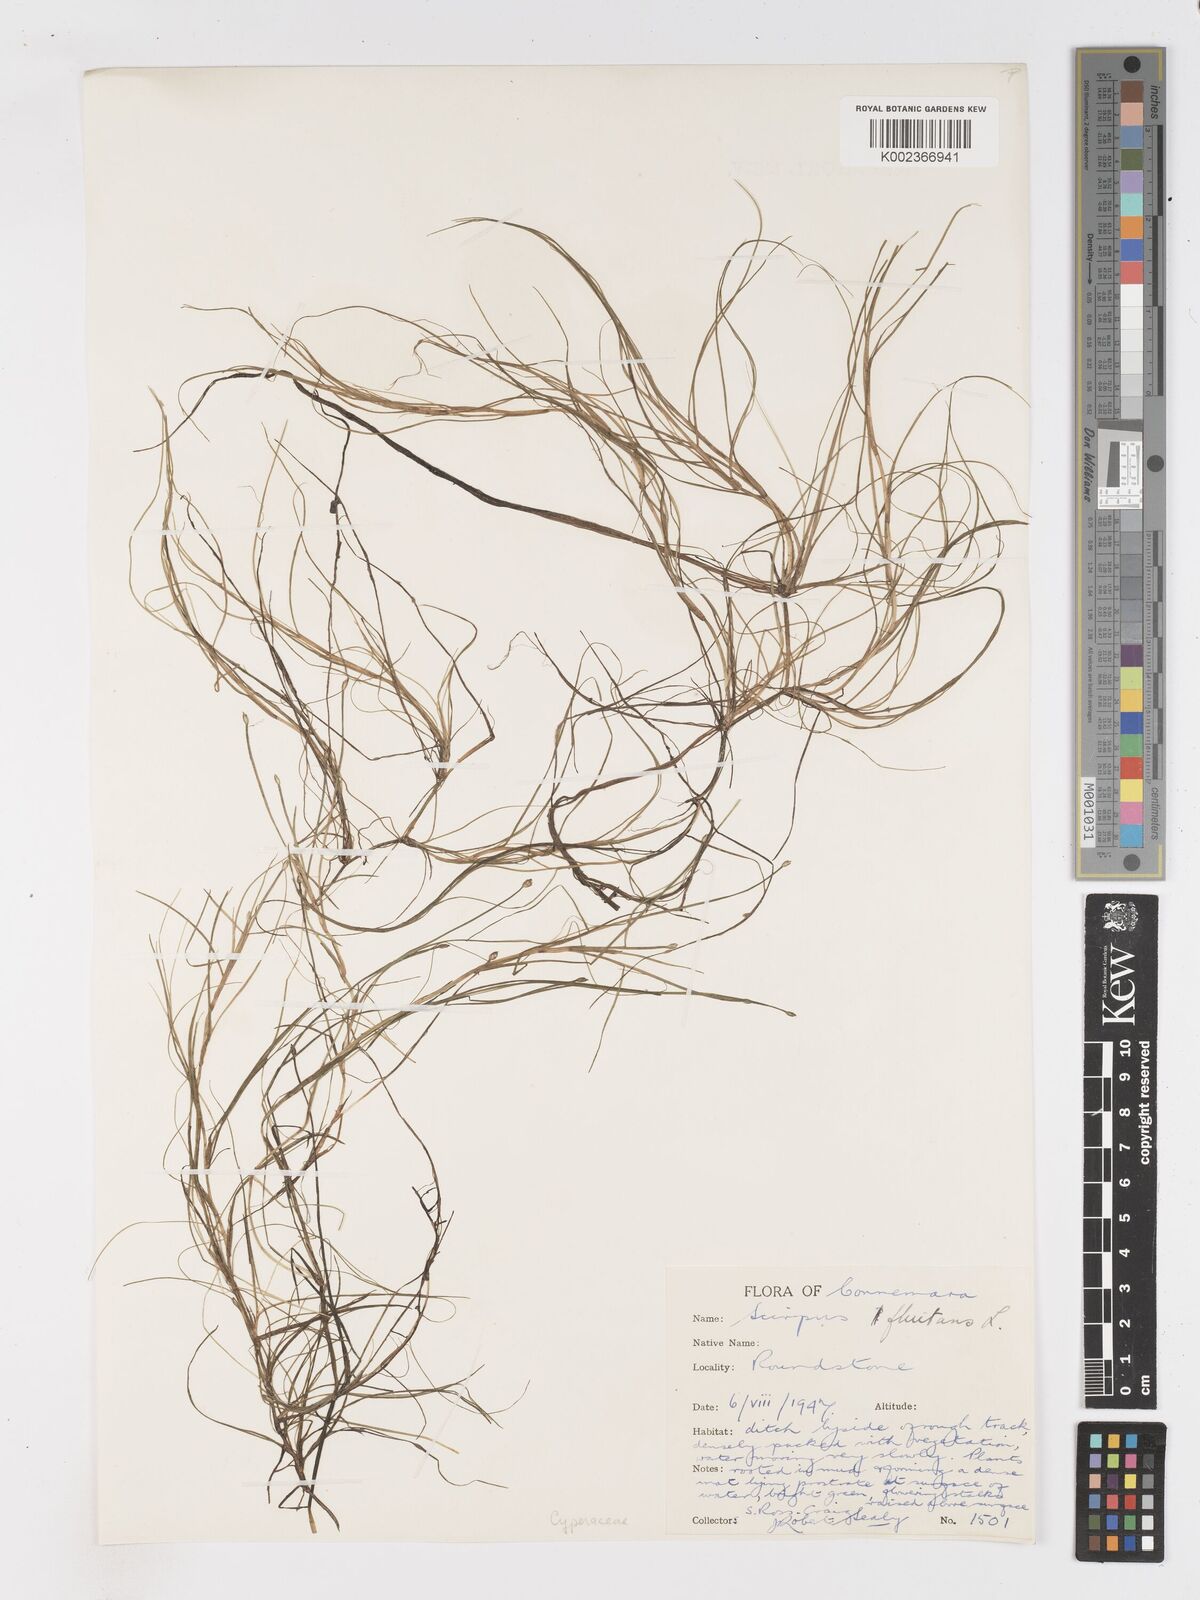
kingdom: Plantae
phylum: Tracheophyta
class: Liliopsida
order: Poales
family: Cyperaceae
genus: Isolepis
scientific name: Isolepis fluitans
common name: Floating club-rush
